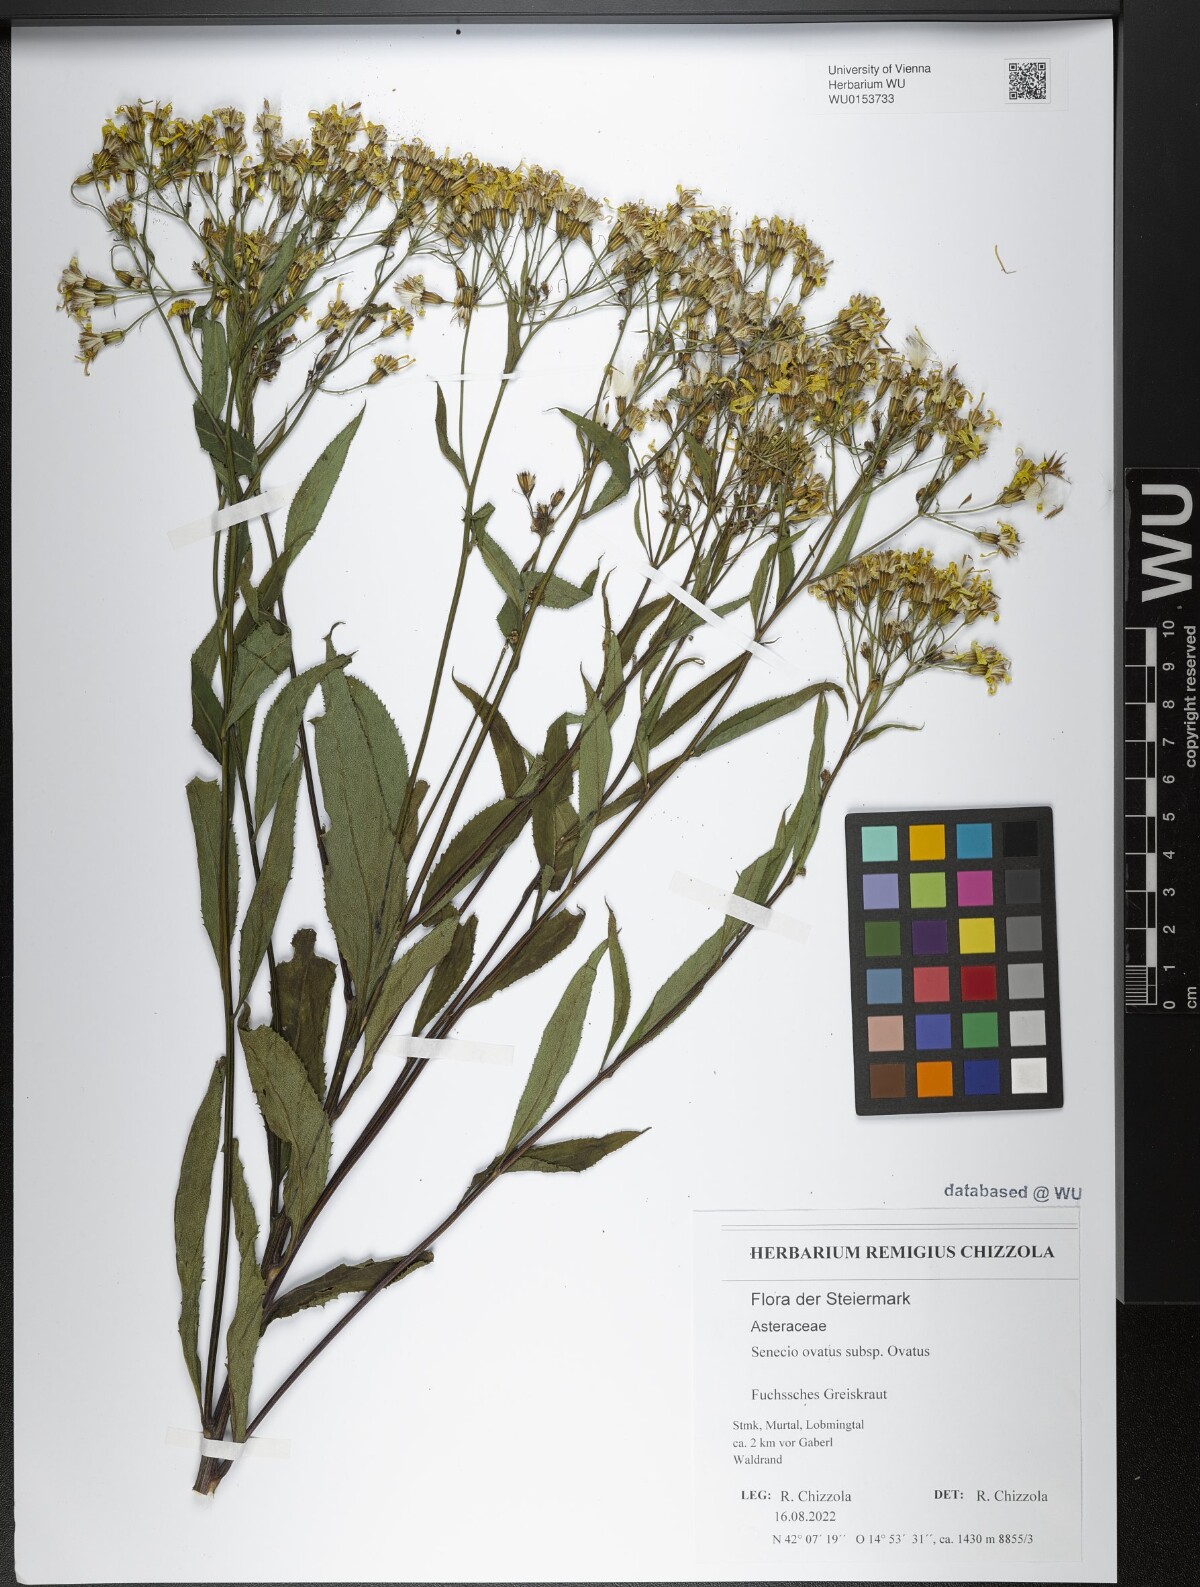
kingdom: Plantae
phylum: Tracheophyta
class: Magnoliopsida
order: Asterales
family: Asteraceae
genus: Senecio
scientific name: Senecio ovatus
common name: Wood ragwort
